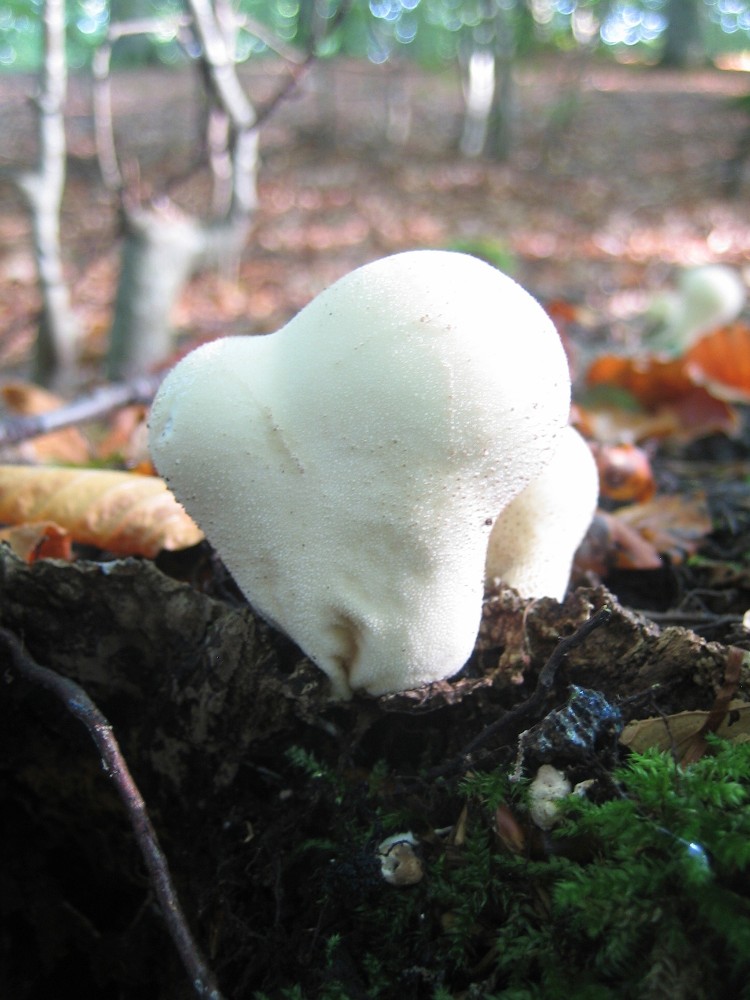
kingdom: Fungi
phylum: Basidiomycota
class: Agaricomycetes
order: Agaricales
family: Lycoperdaceae
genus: Apioperdon
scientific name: Apioperdon pyriforme
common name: pære-støvbold
